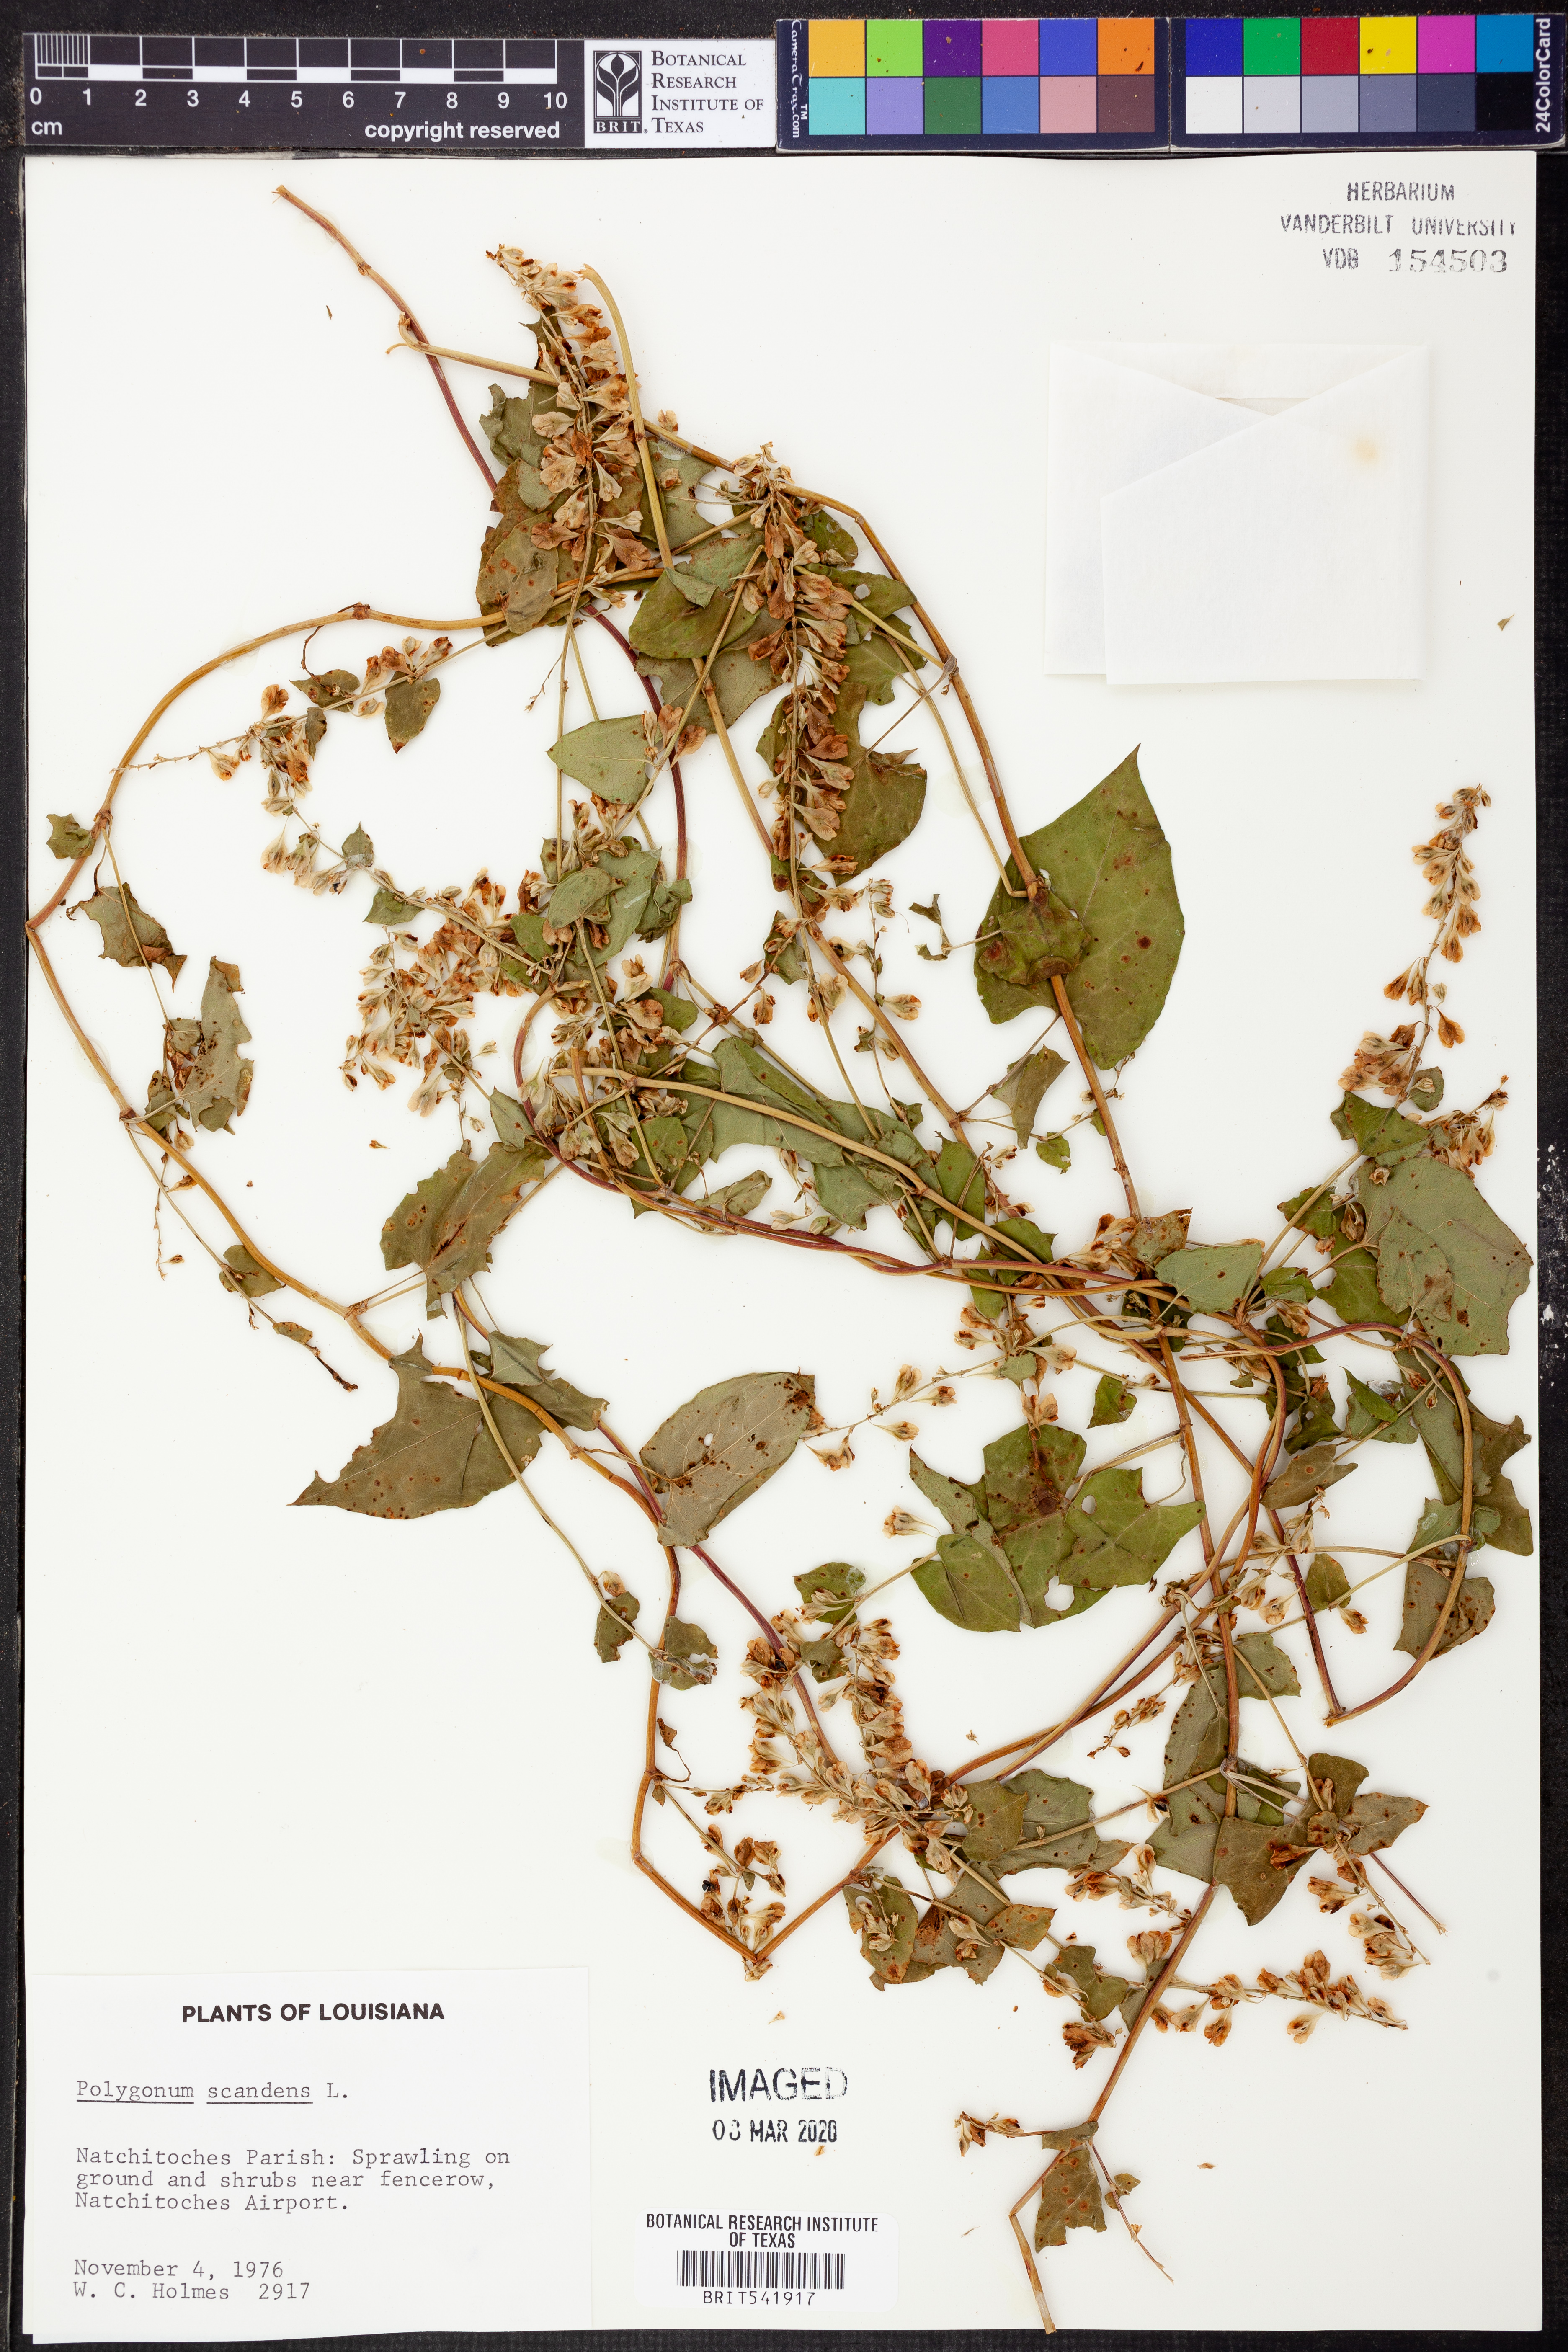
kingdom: Plantae
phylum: Tracheophyta
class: Magnoliopsida
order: Caryophyllales
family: Polygonaceae
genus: Fallopia
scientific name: Fallopia scandens
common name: Climbing false buckwheat
